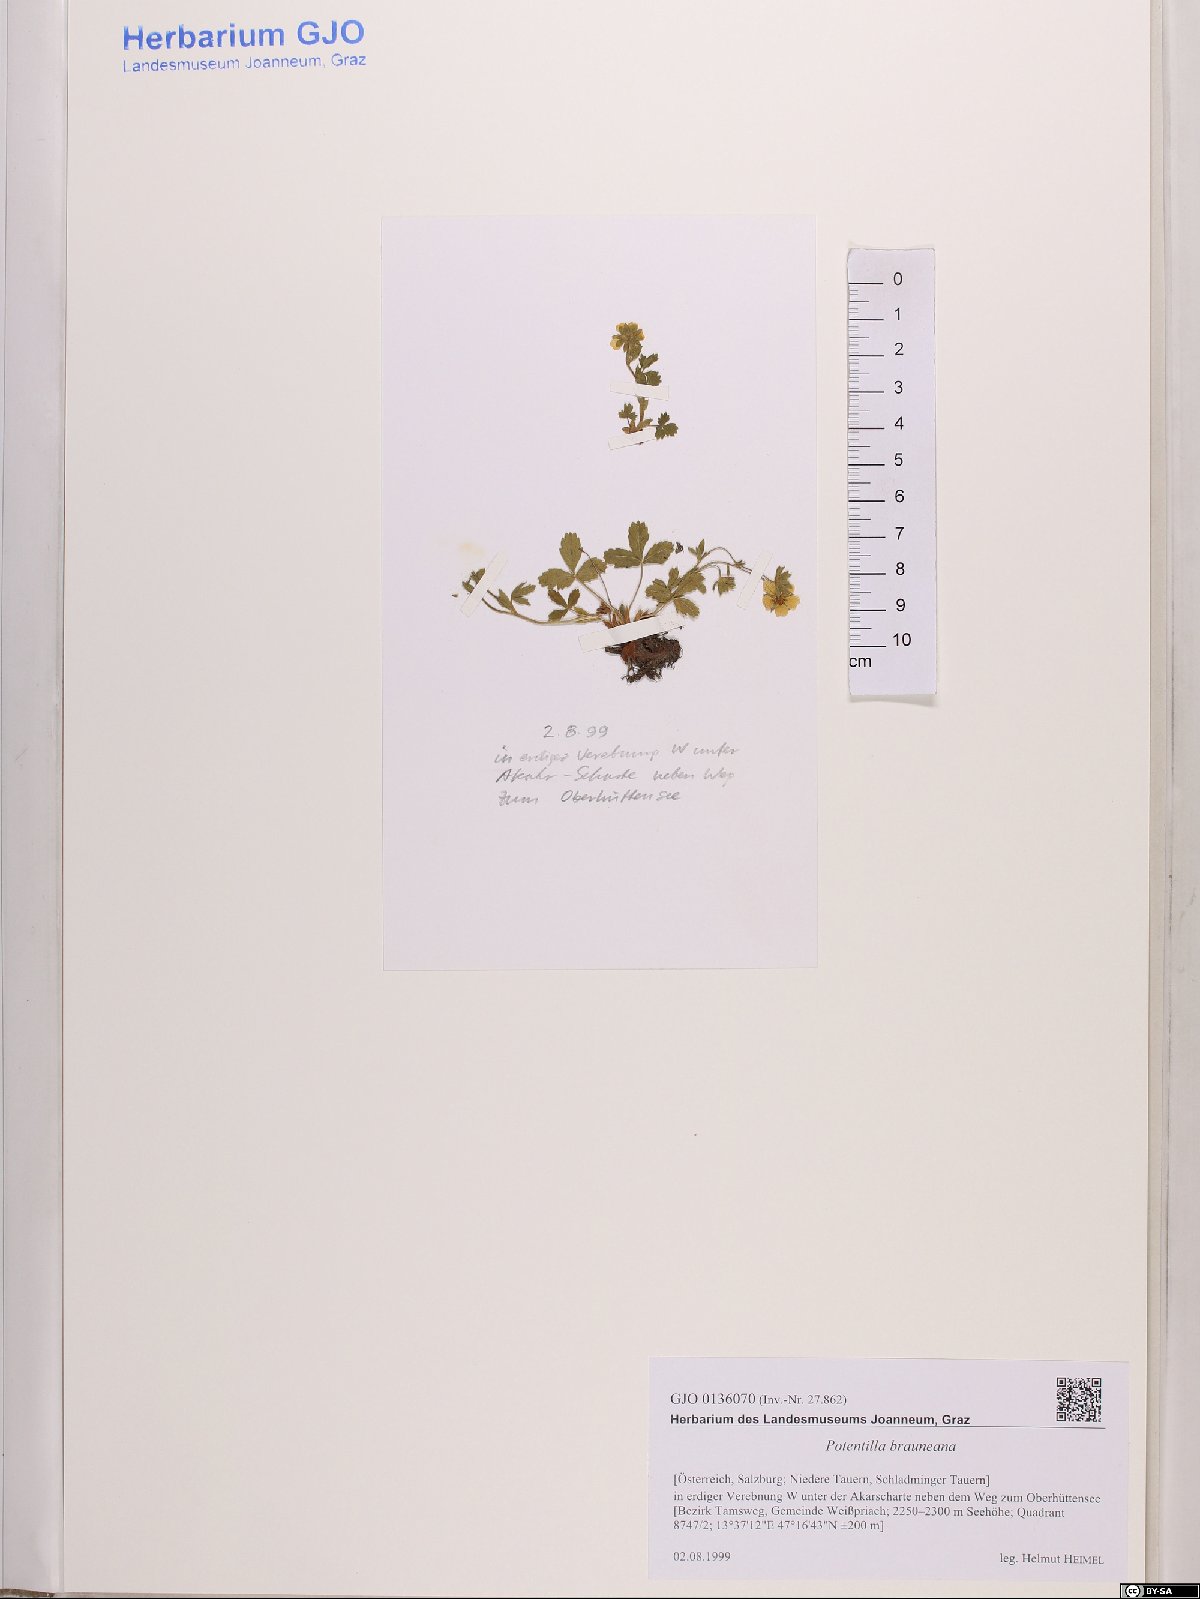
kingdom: Plantae
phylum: Tracheophyta
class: Magnoliopsida
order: Rosales
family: Rosaceae
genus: Potentilla
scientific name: Potentilla brauneana
